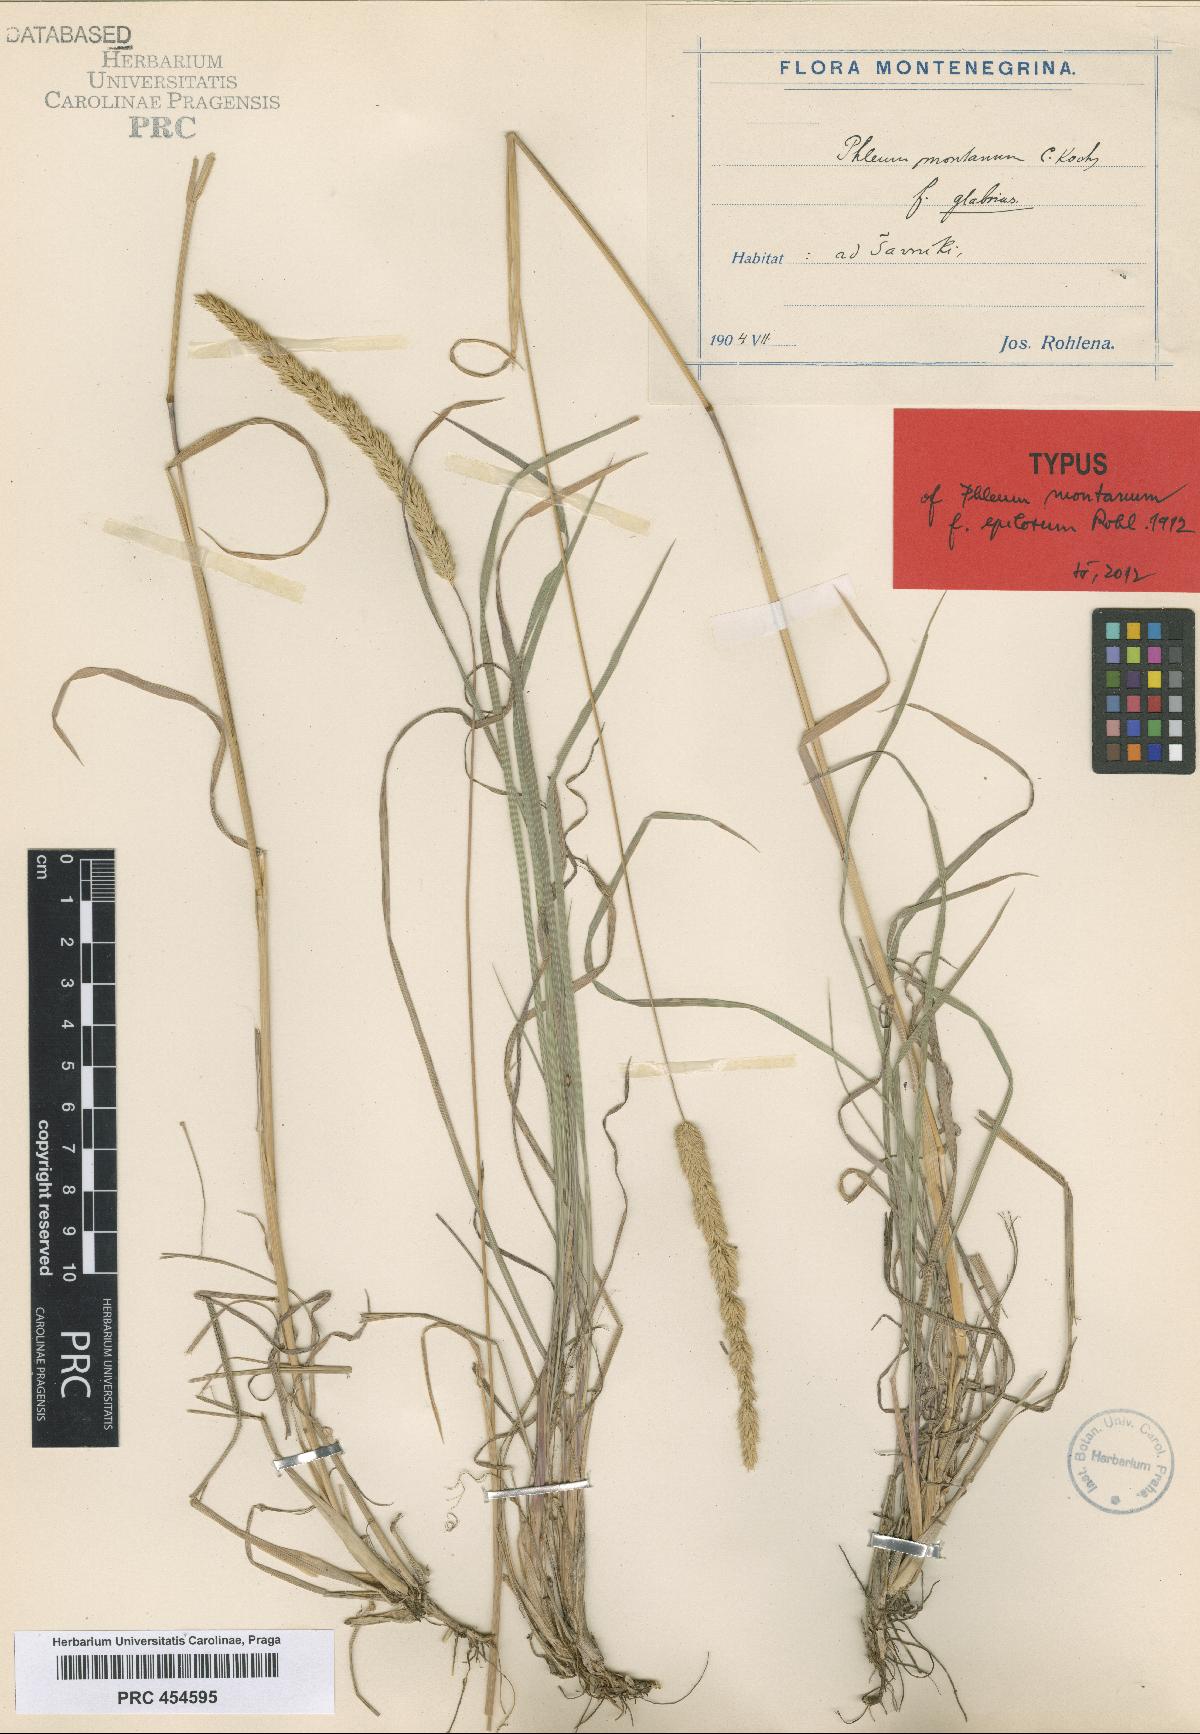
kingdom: Plantae
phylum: Tracheophyta
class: Liliopsida
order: Poales
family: Poaceae
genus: Phleum
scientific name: Phleum montanum
